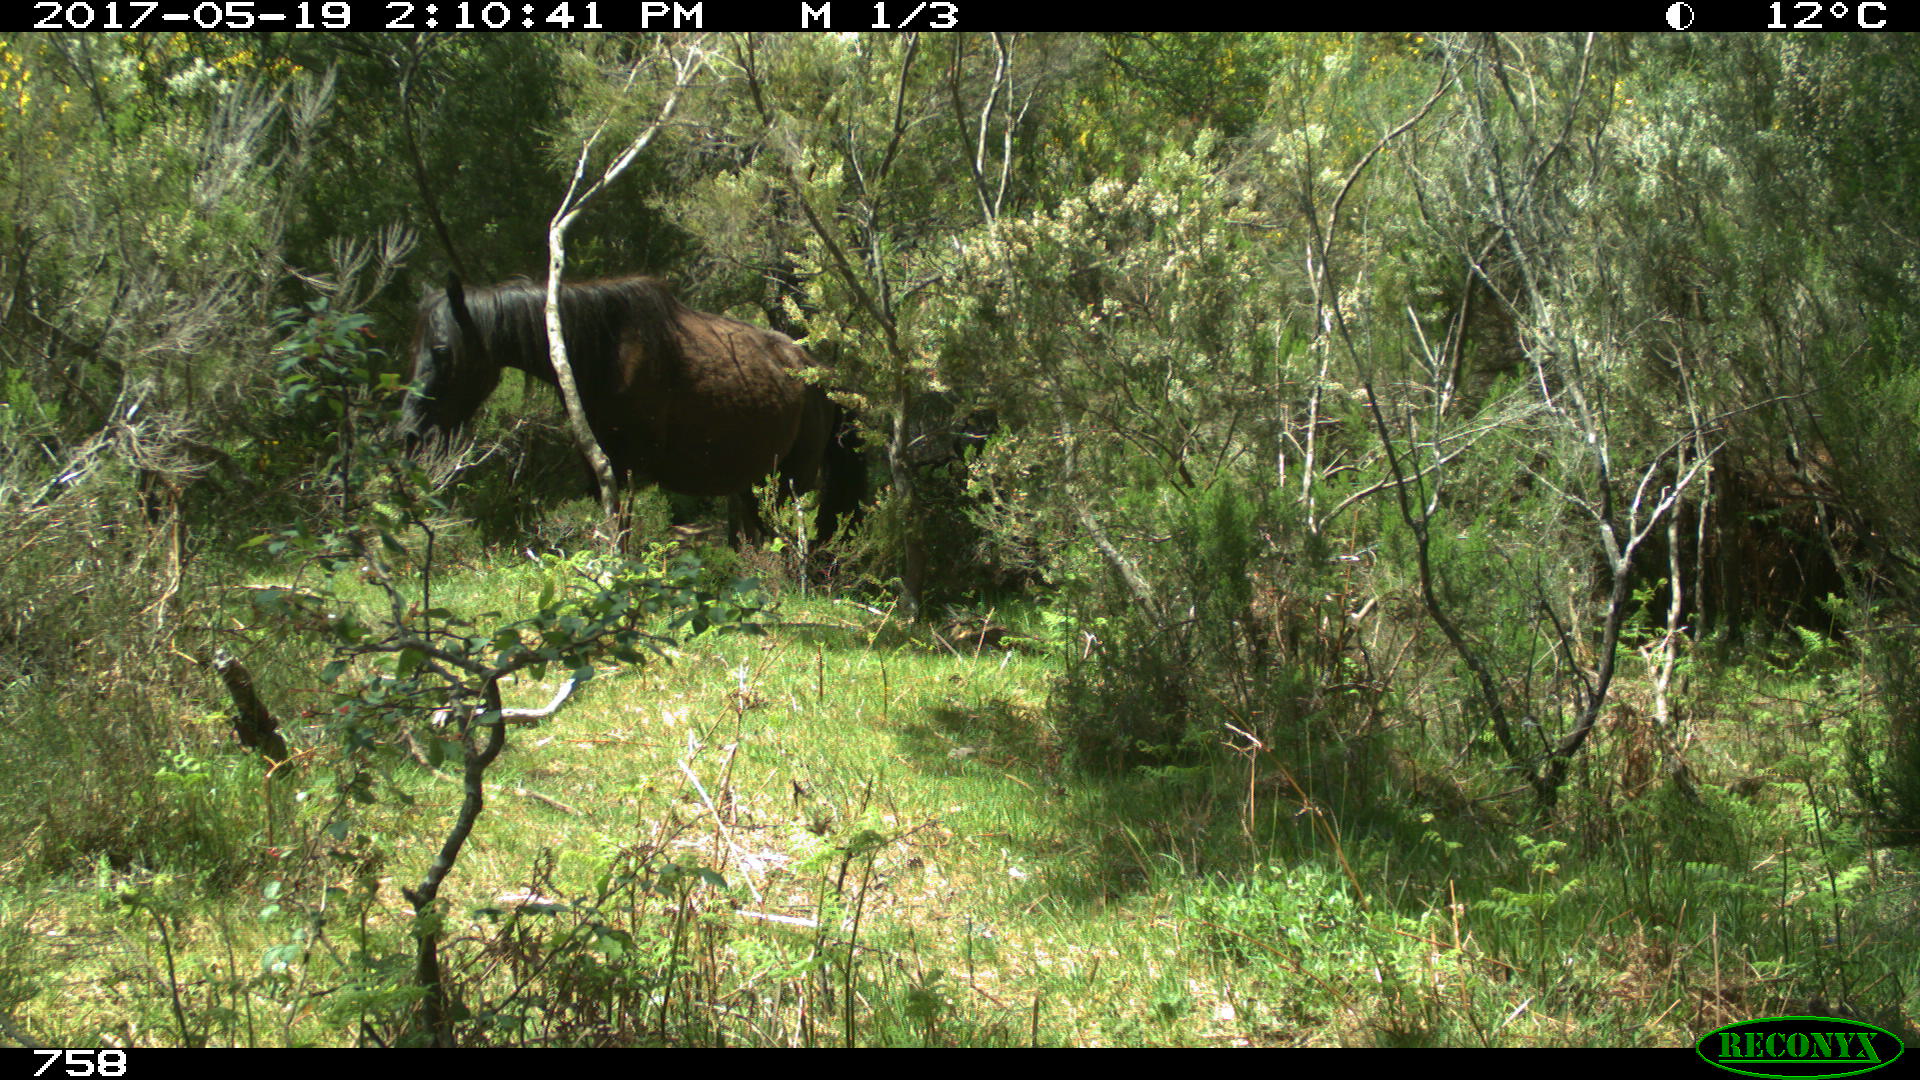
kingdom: Animalia
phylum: Chordata
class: Mammalia
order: Perissodactyla
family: Equidae
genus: Equus
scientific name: Equus caballus
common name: Horse
